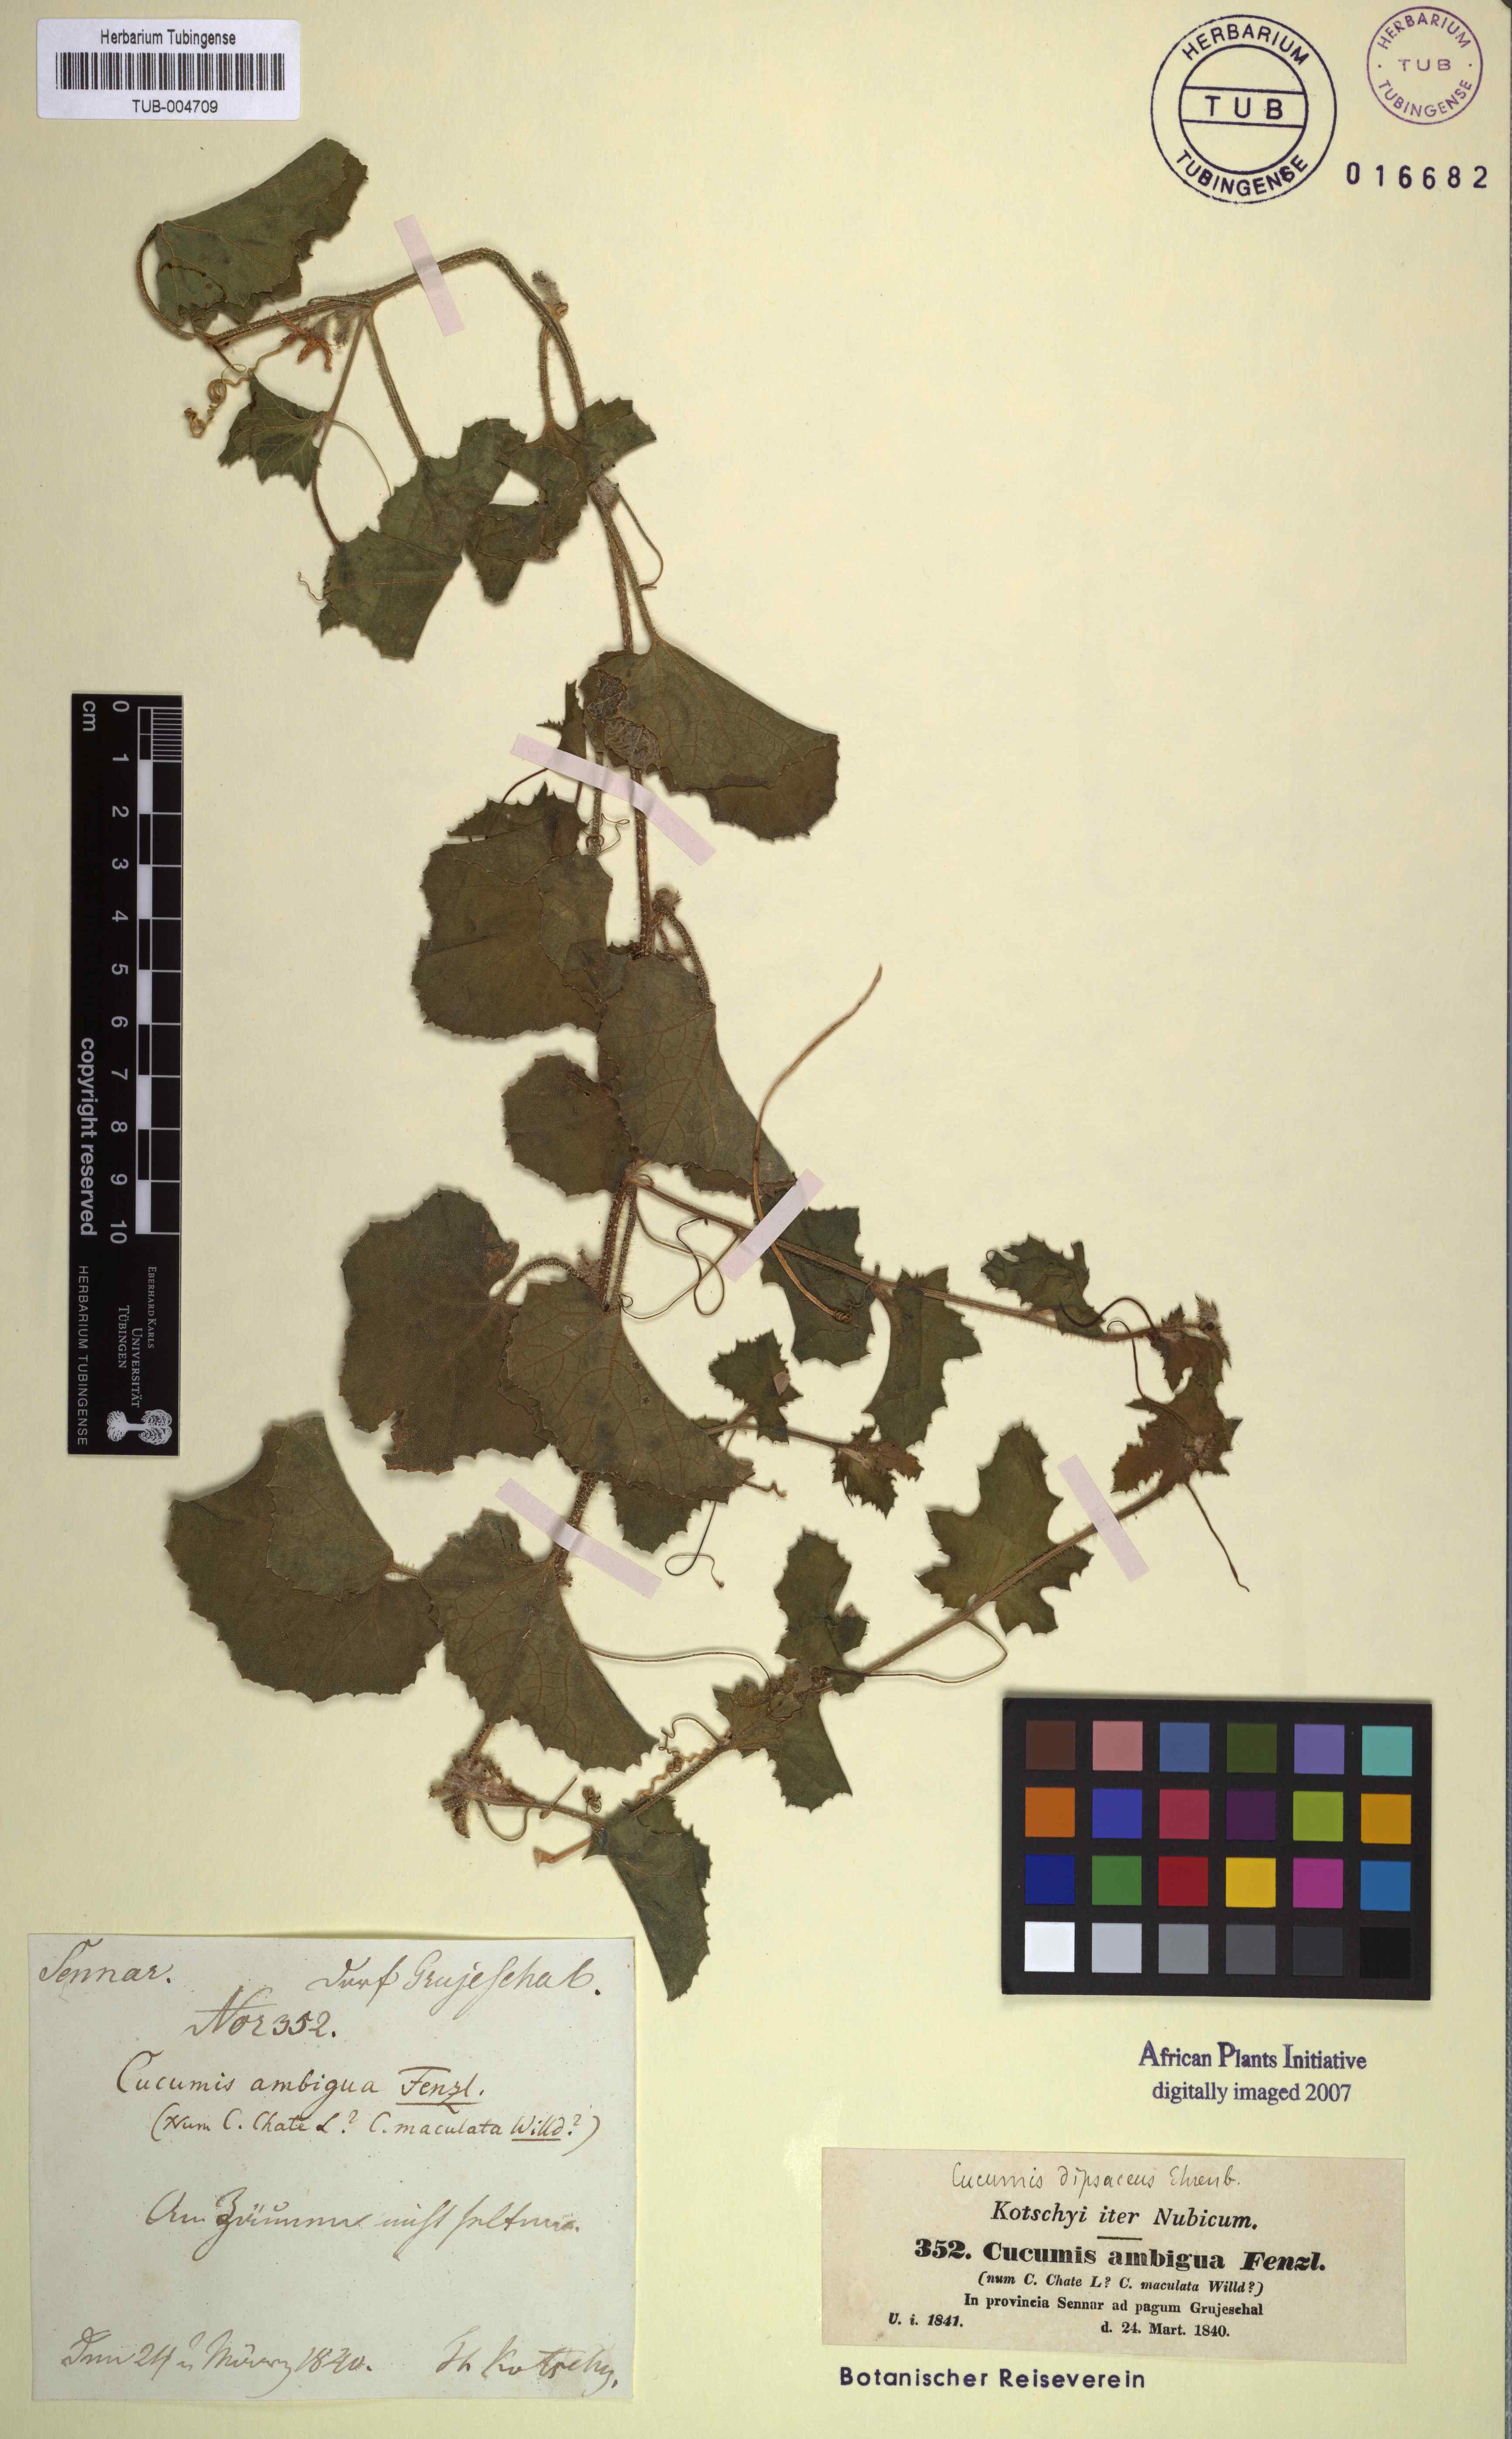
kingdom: Plantae
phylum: Tracheophyta
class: Magnoliopsida
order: Cucurbitales
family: Cucurbitaceae
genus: Cucumis
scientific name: Cucumis dipsaceus
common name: Hedgehog gourd
